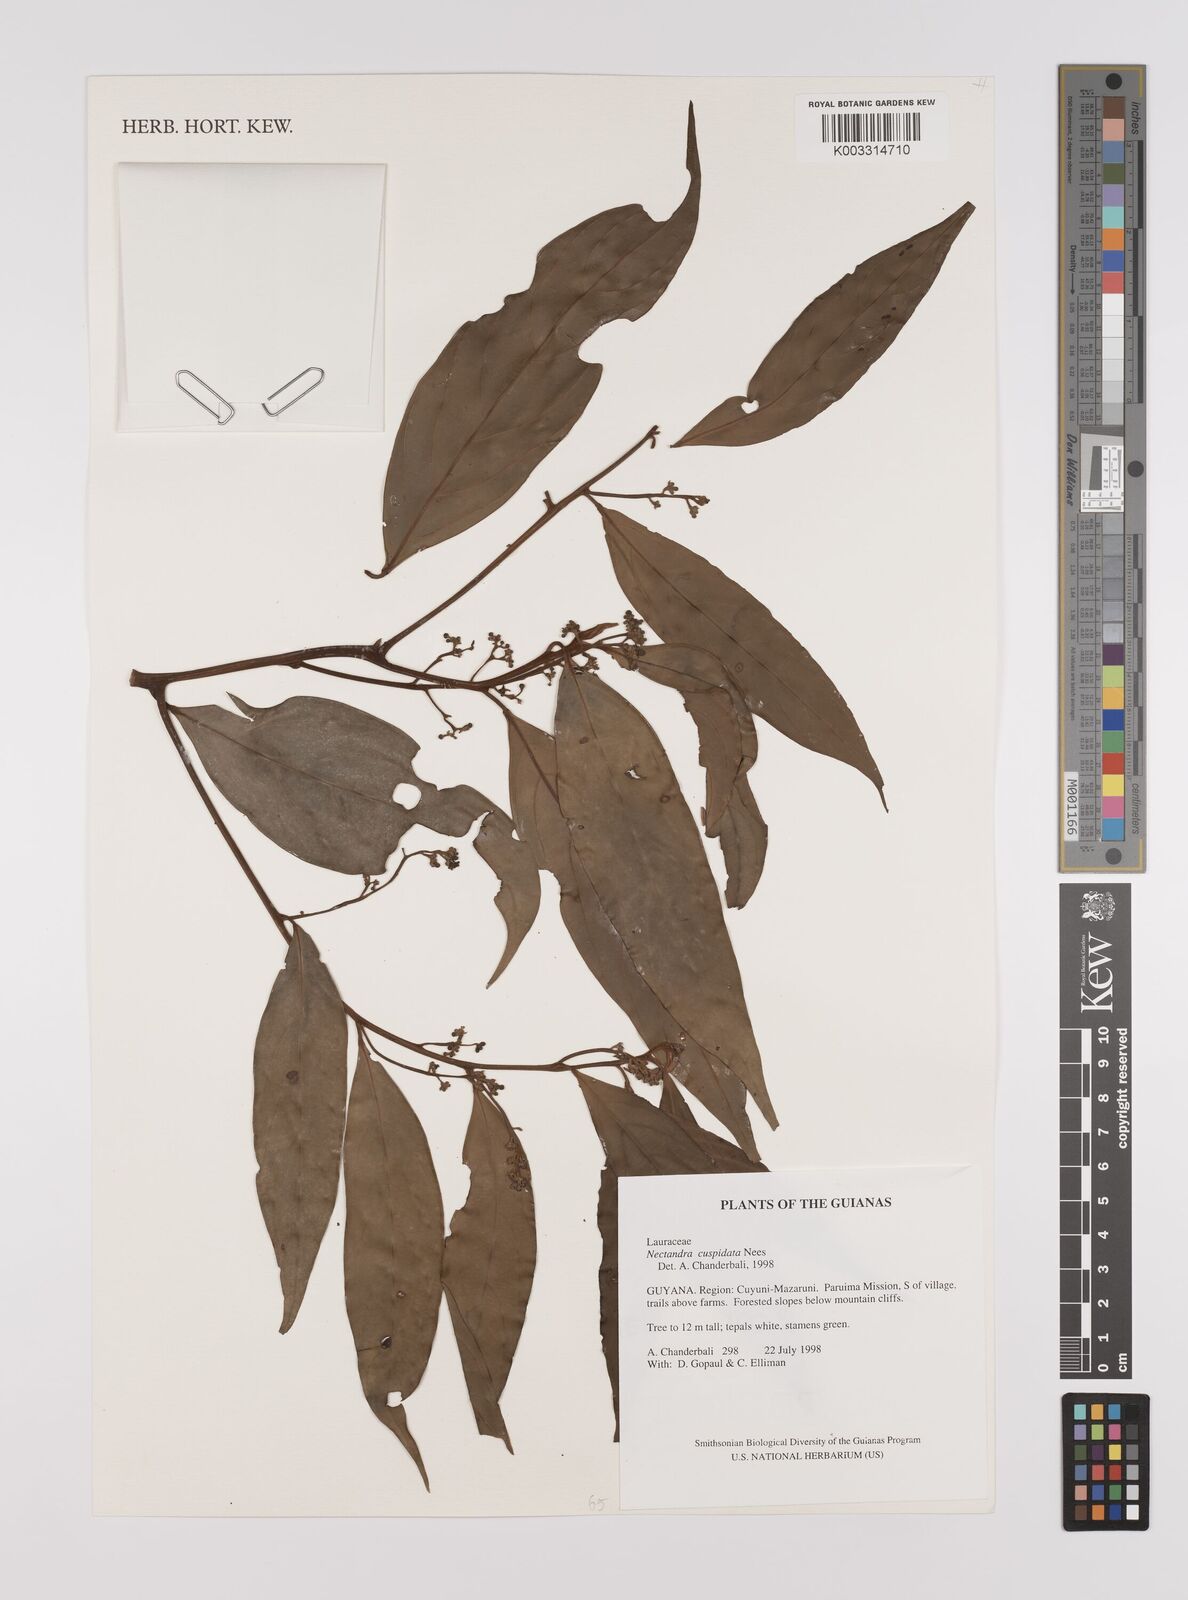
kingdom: Plantae
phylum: Tracheophyta
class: Magnoliopsida
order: Laurales
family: Lauraceae
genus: Nectandra
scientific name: Nectandra cuspidata
